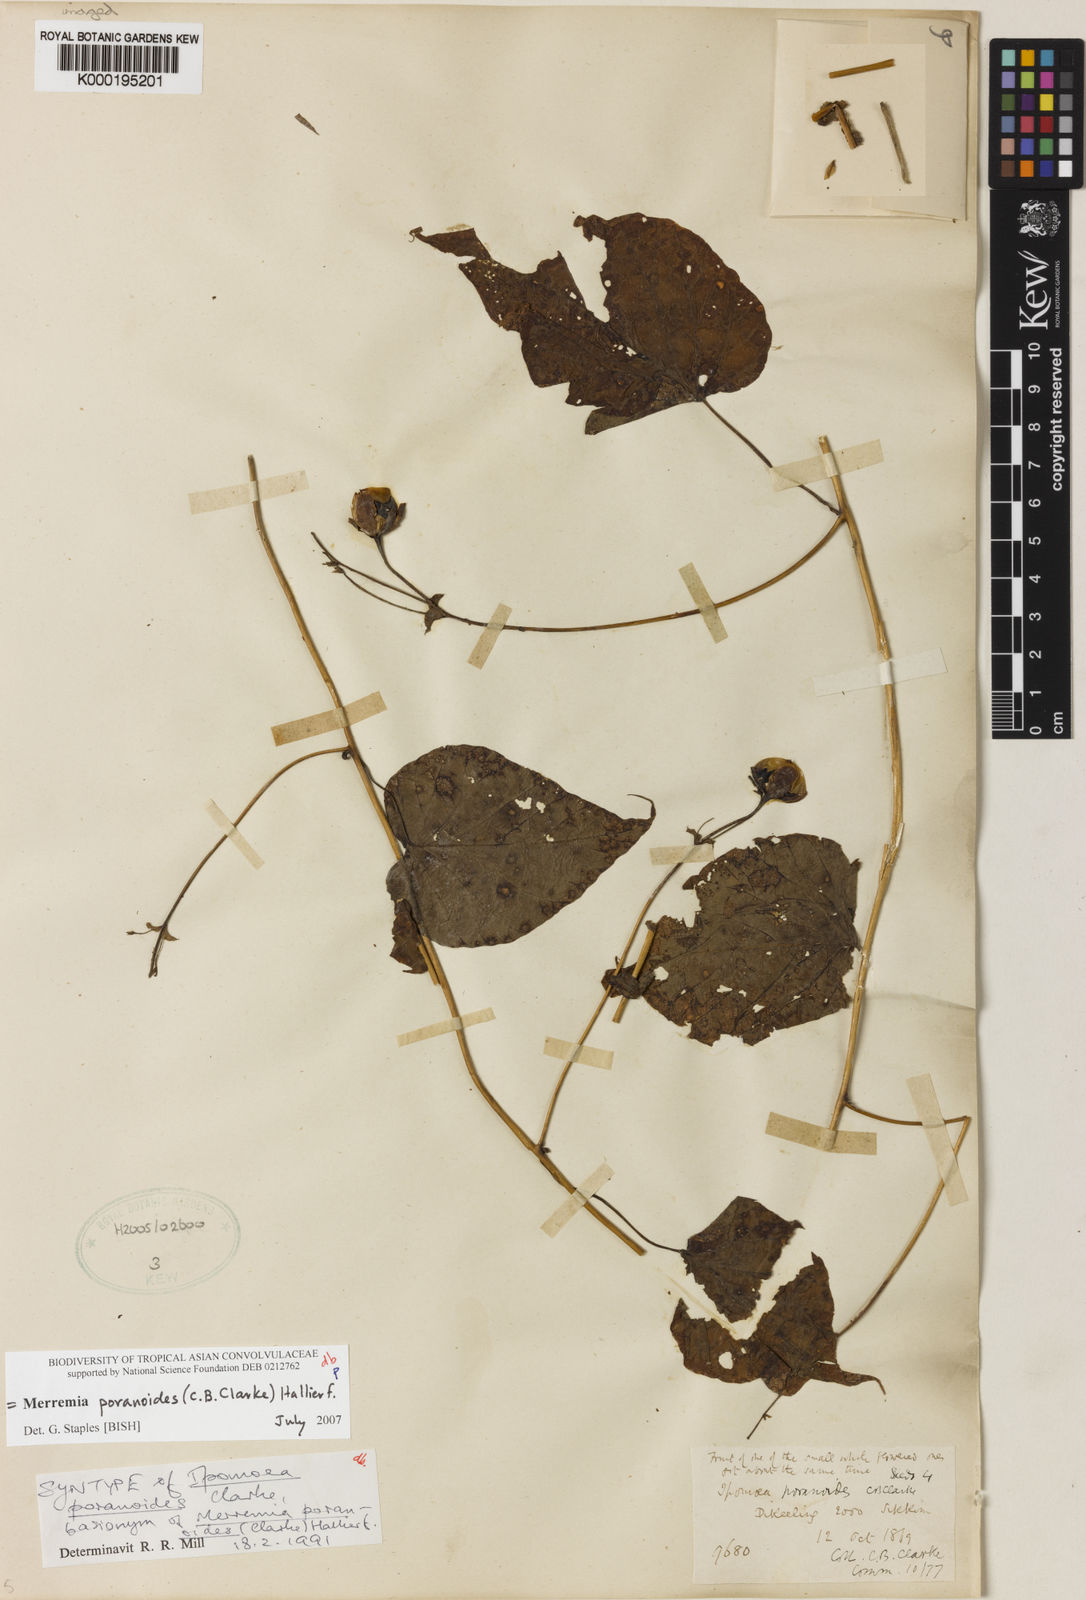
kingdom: Plantae
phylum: Tracheophyta
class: Magnoliopsida
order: Solanales
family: Convolvulaceae
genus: Merremia
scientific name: Merremia poranoides
